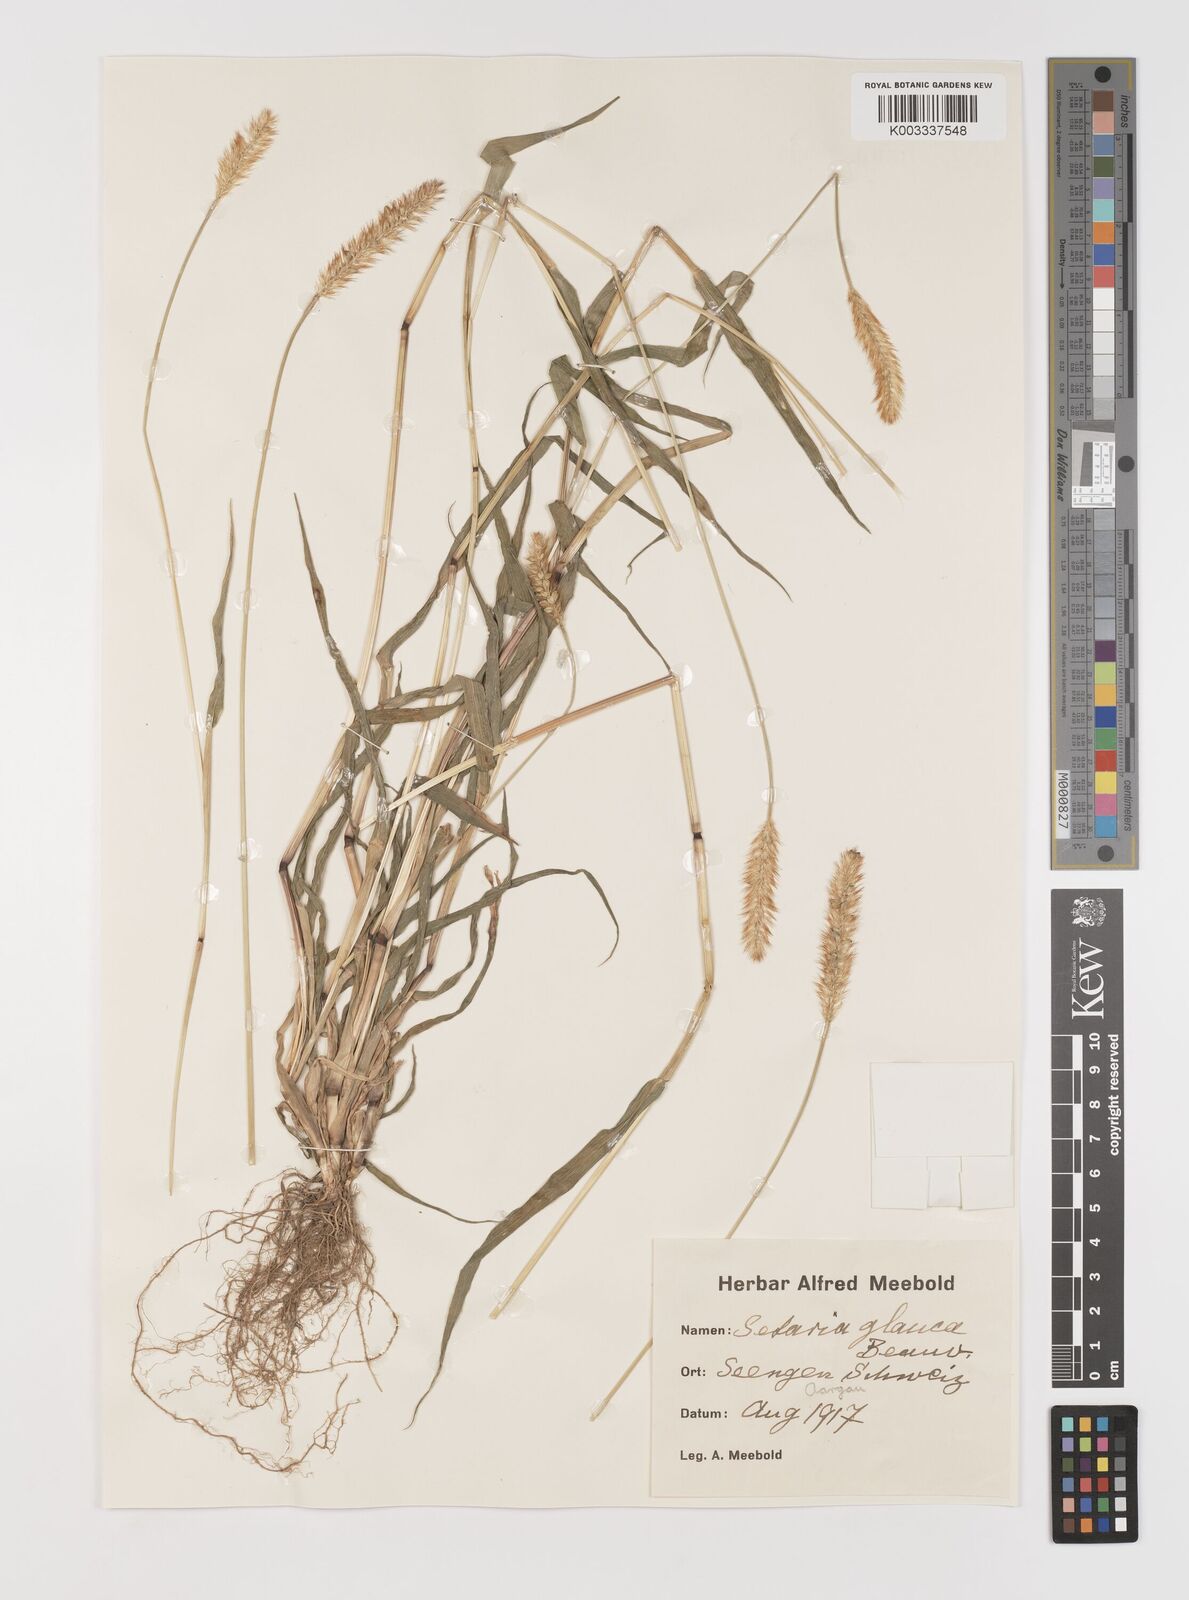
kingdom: Plantae
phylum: Tracheophyta
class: Liliopsida
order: Poales
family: Poaceae
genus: Setaria
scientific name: Setaria pumila
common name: Yellow bristle-grass
